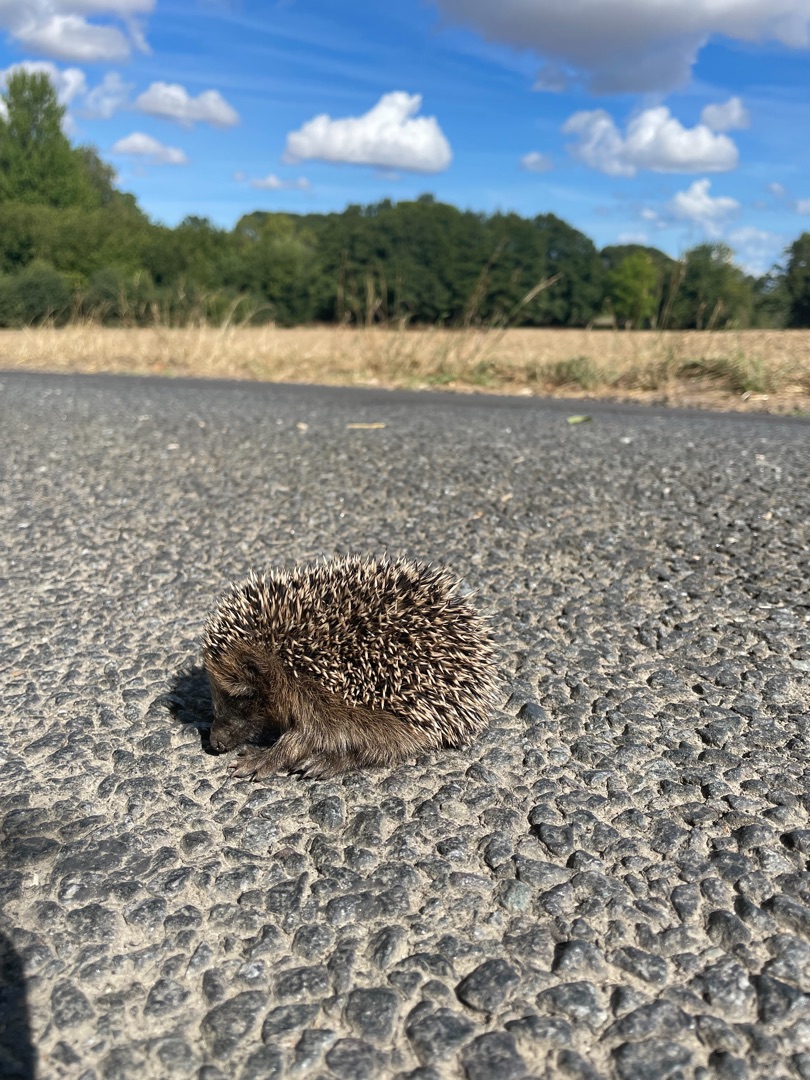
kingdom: Animalia
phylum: Chordata
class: Mammalia
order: Erinaceomorpha
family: Erinaceidae
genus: Erinaceus
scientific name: Erinaceus europaeus
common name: Pindsvin
